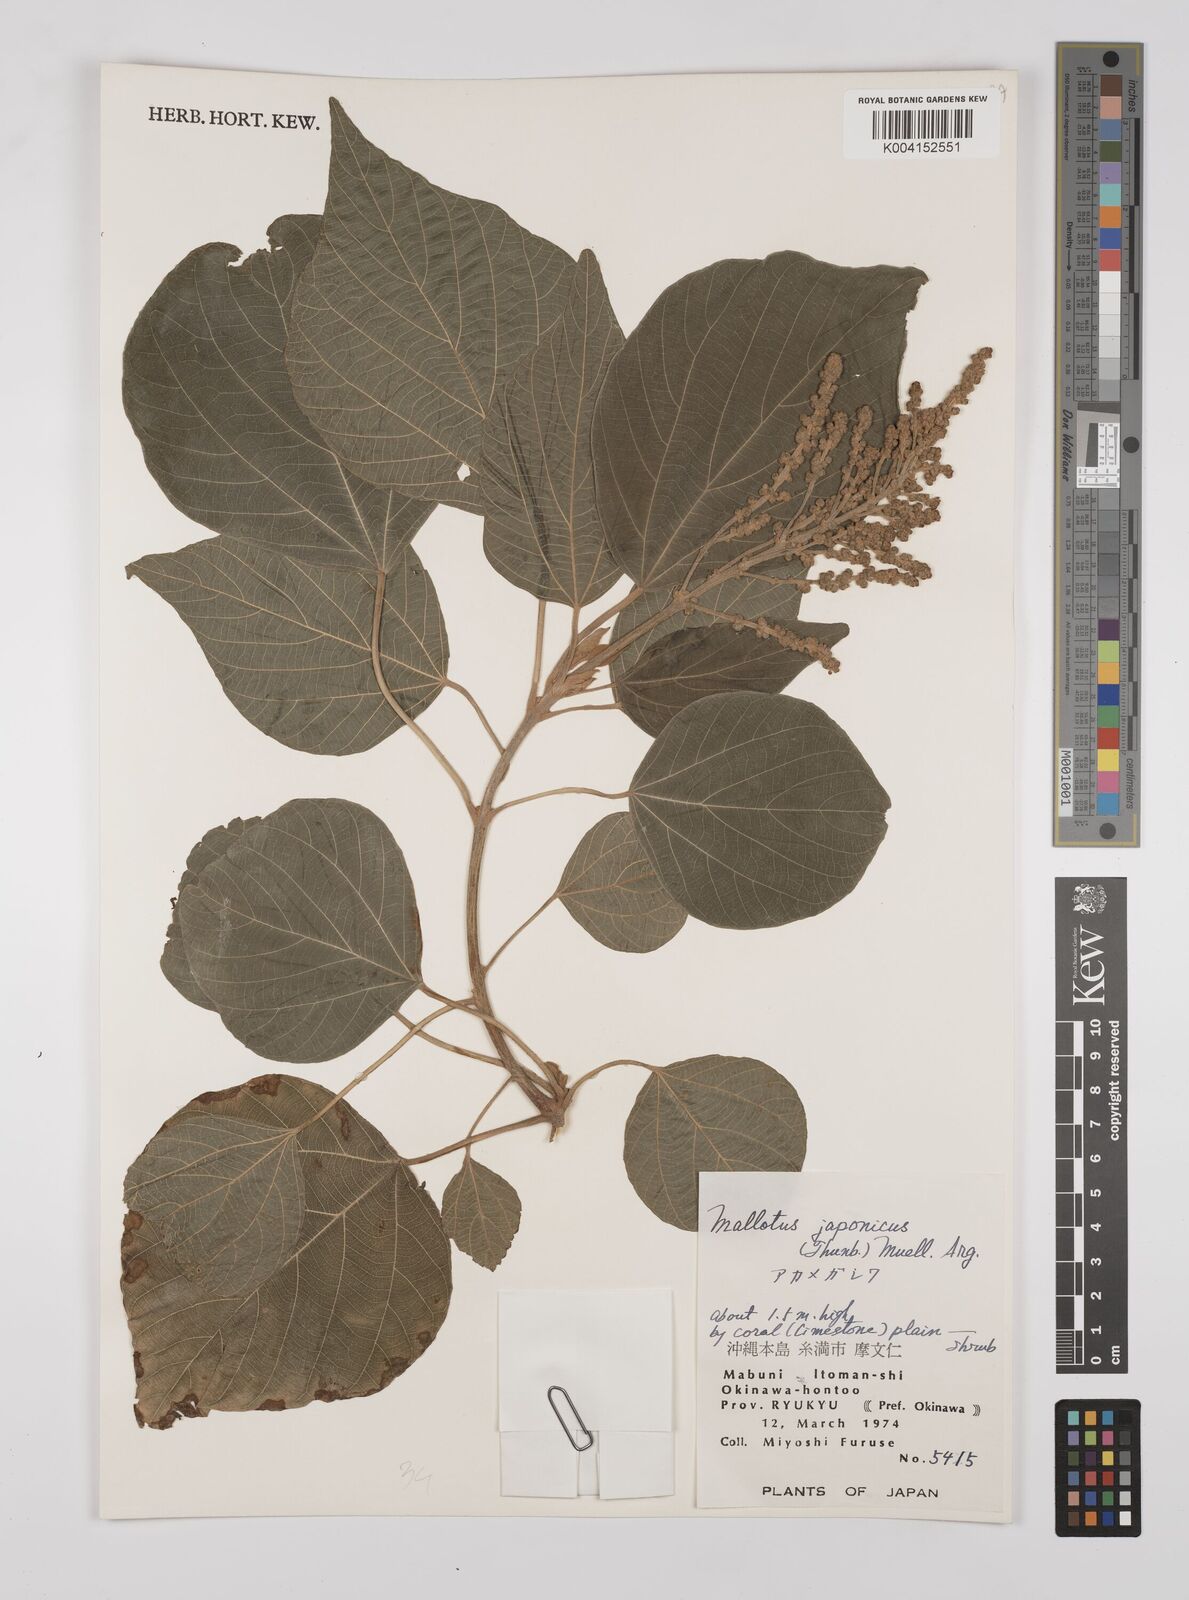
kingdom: Plantae
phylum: Tracheophyta
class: Magnoliopsida
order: Malpighiales
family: Euphorbiaceae
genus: Mallotus
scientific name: Mallotus japonicus
